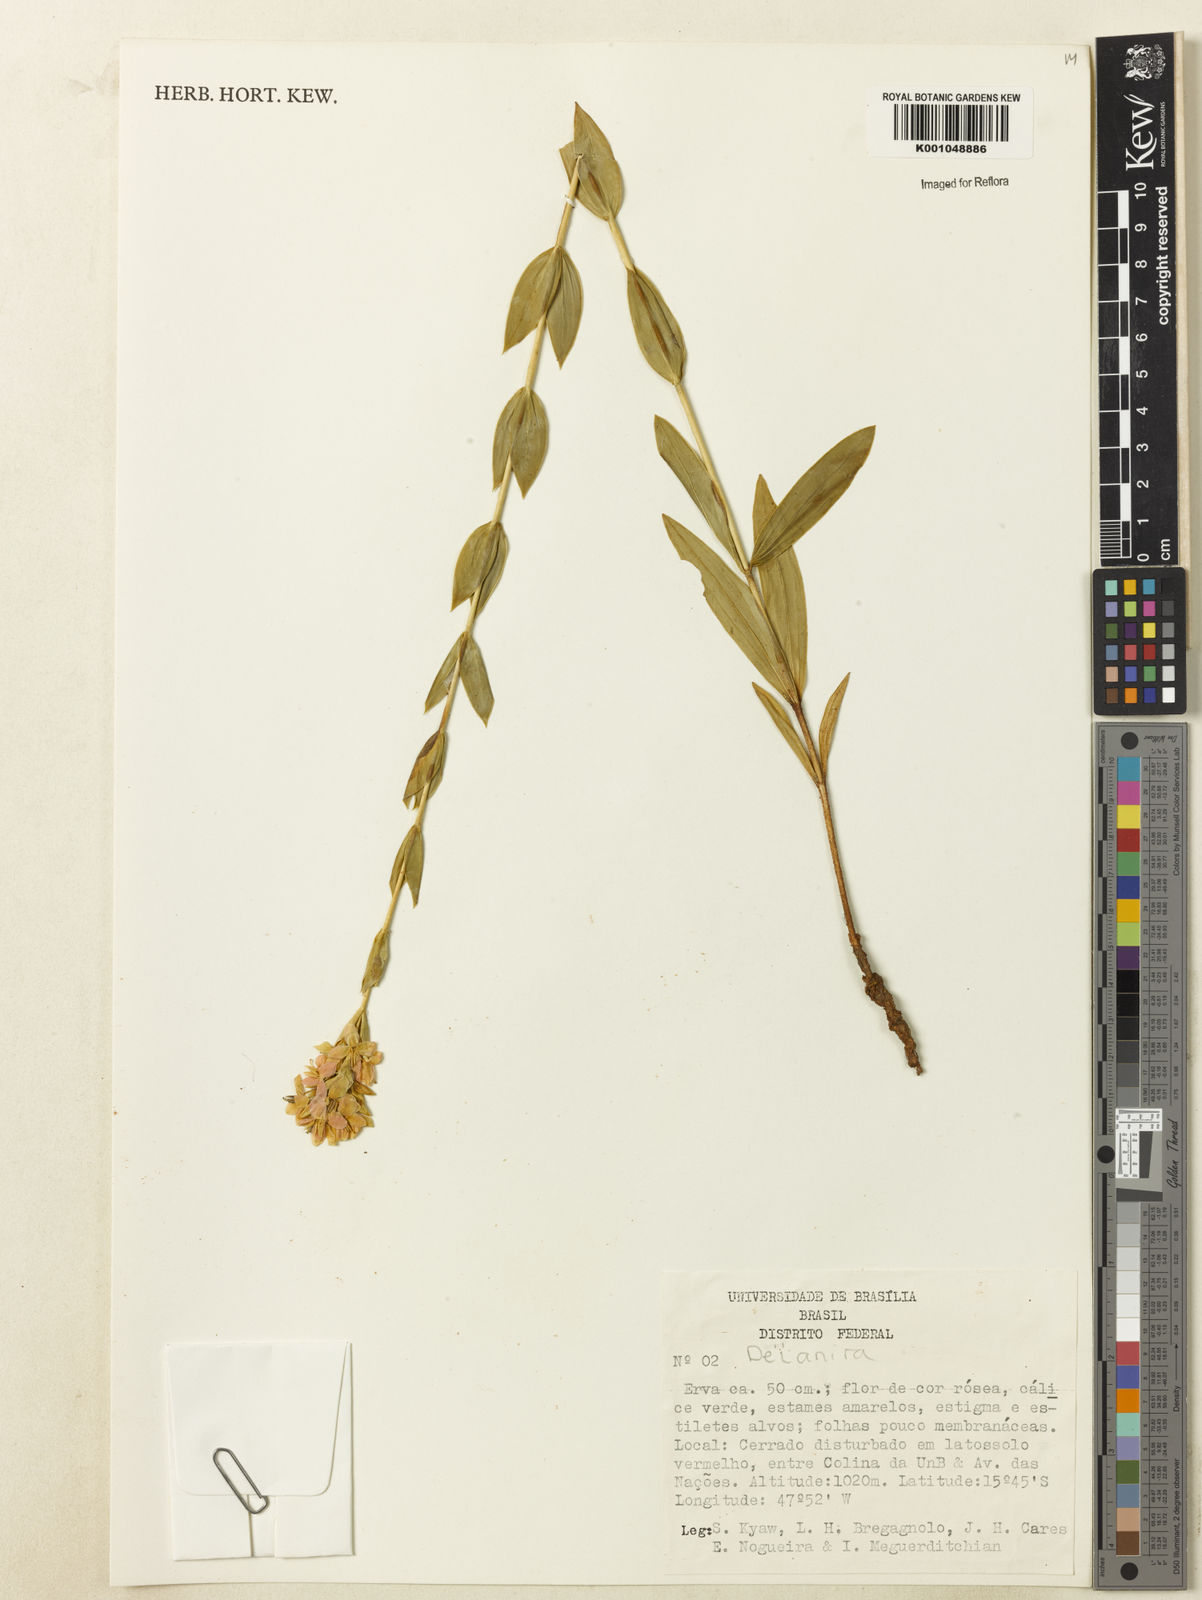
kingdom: Plantae
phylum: Tracheophyta
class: Magnoliopsida
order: Gentianales
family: Gentianaceae
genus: Deianira
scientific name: Deianira
